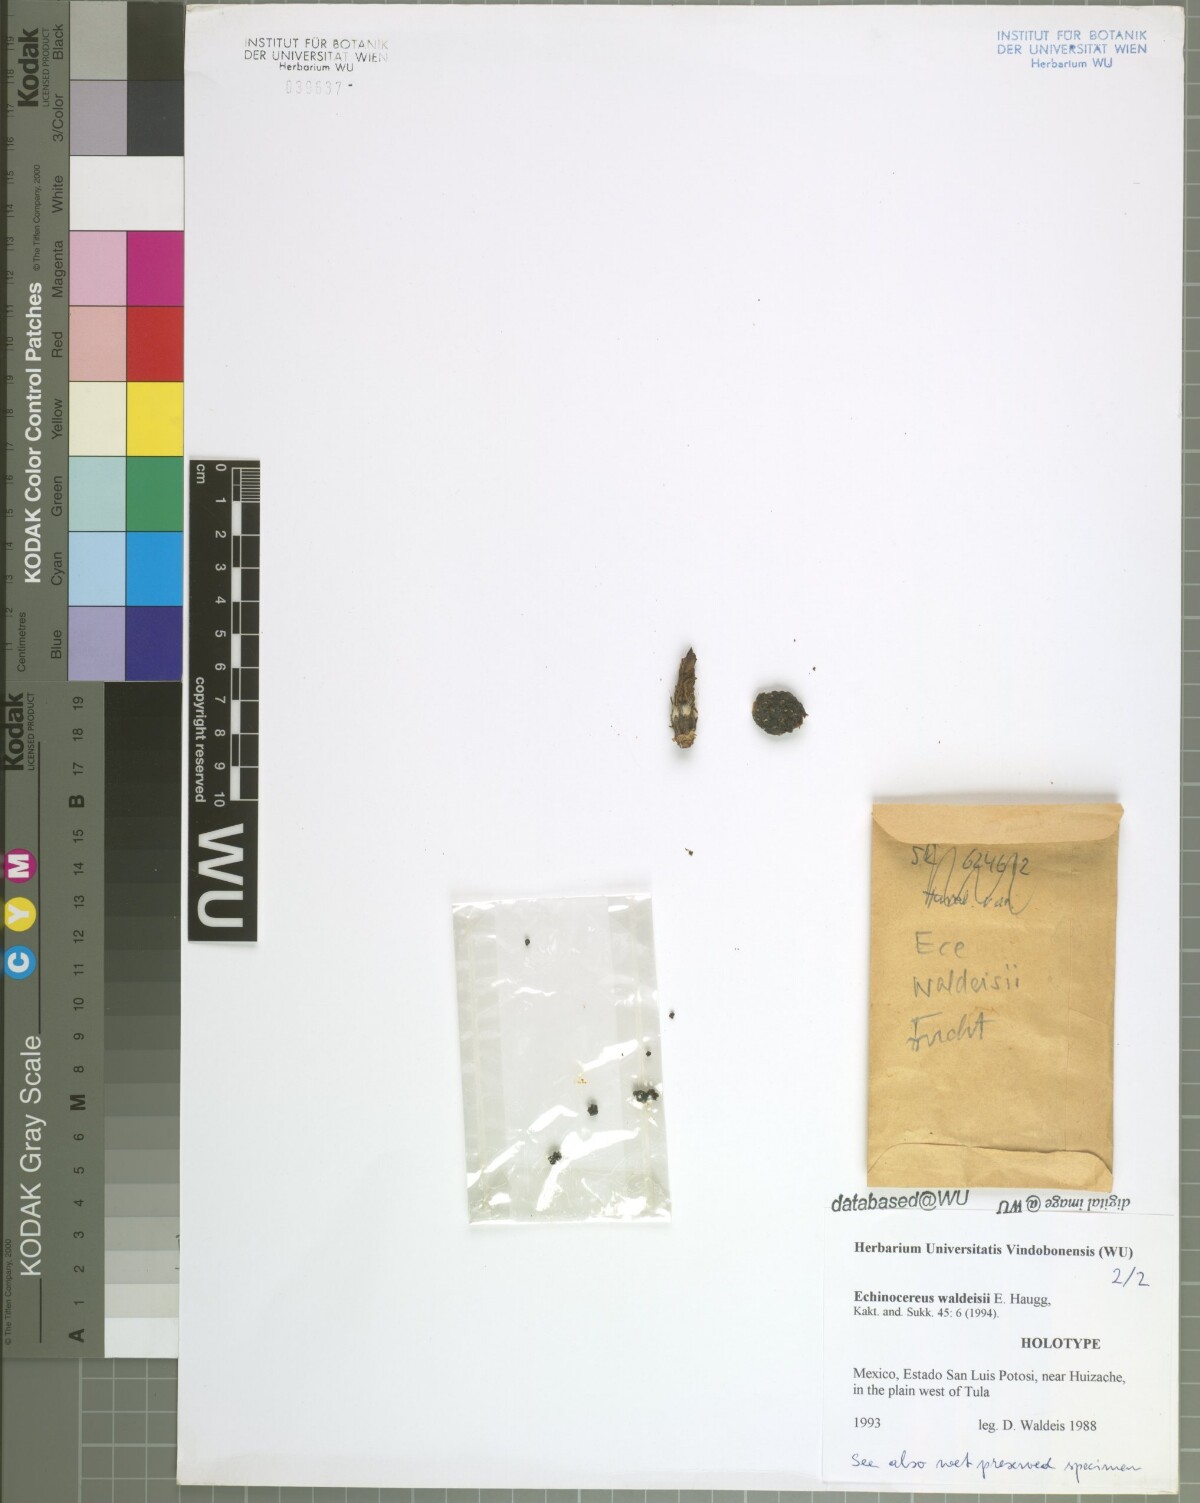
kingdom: Plantae
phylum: Tracheophyta
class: Magnoliopsida
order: Caryophyllales
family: Cactaceae
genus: Echinocereus
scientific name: Echinocereus waldeisii
